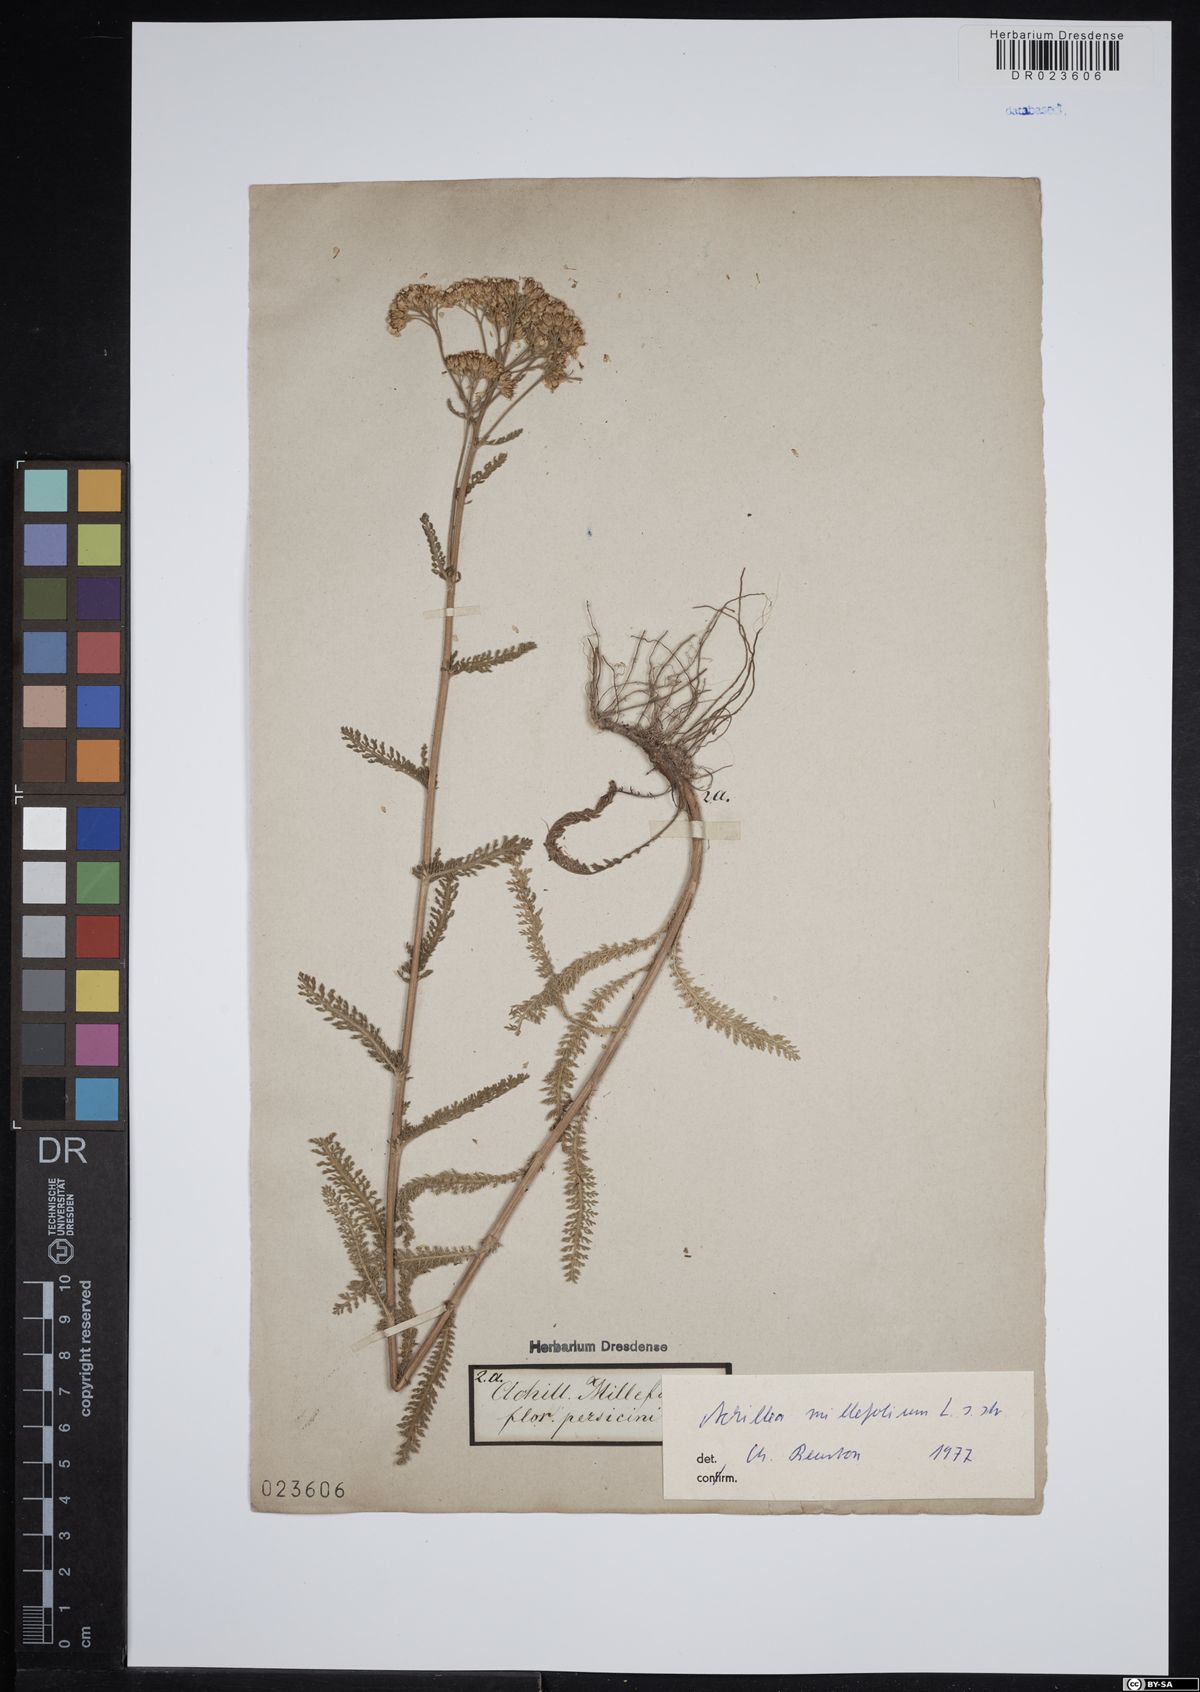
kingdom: Plantae
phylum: Tracheophyta
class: Magnoliopsida
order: Asterales
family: Asteraceae
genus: Achillea
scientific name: Achillea millefolium
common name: Yarrow
